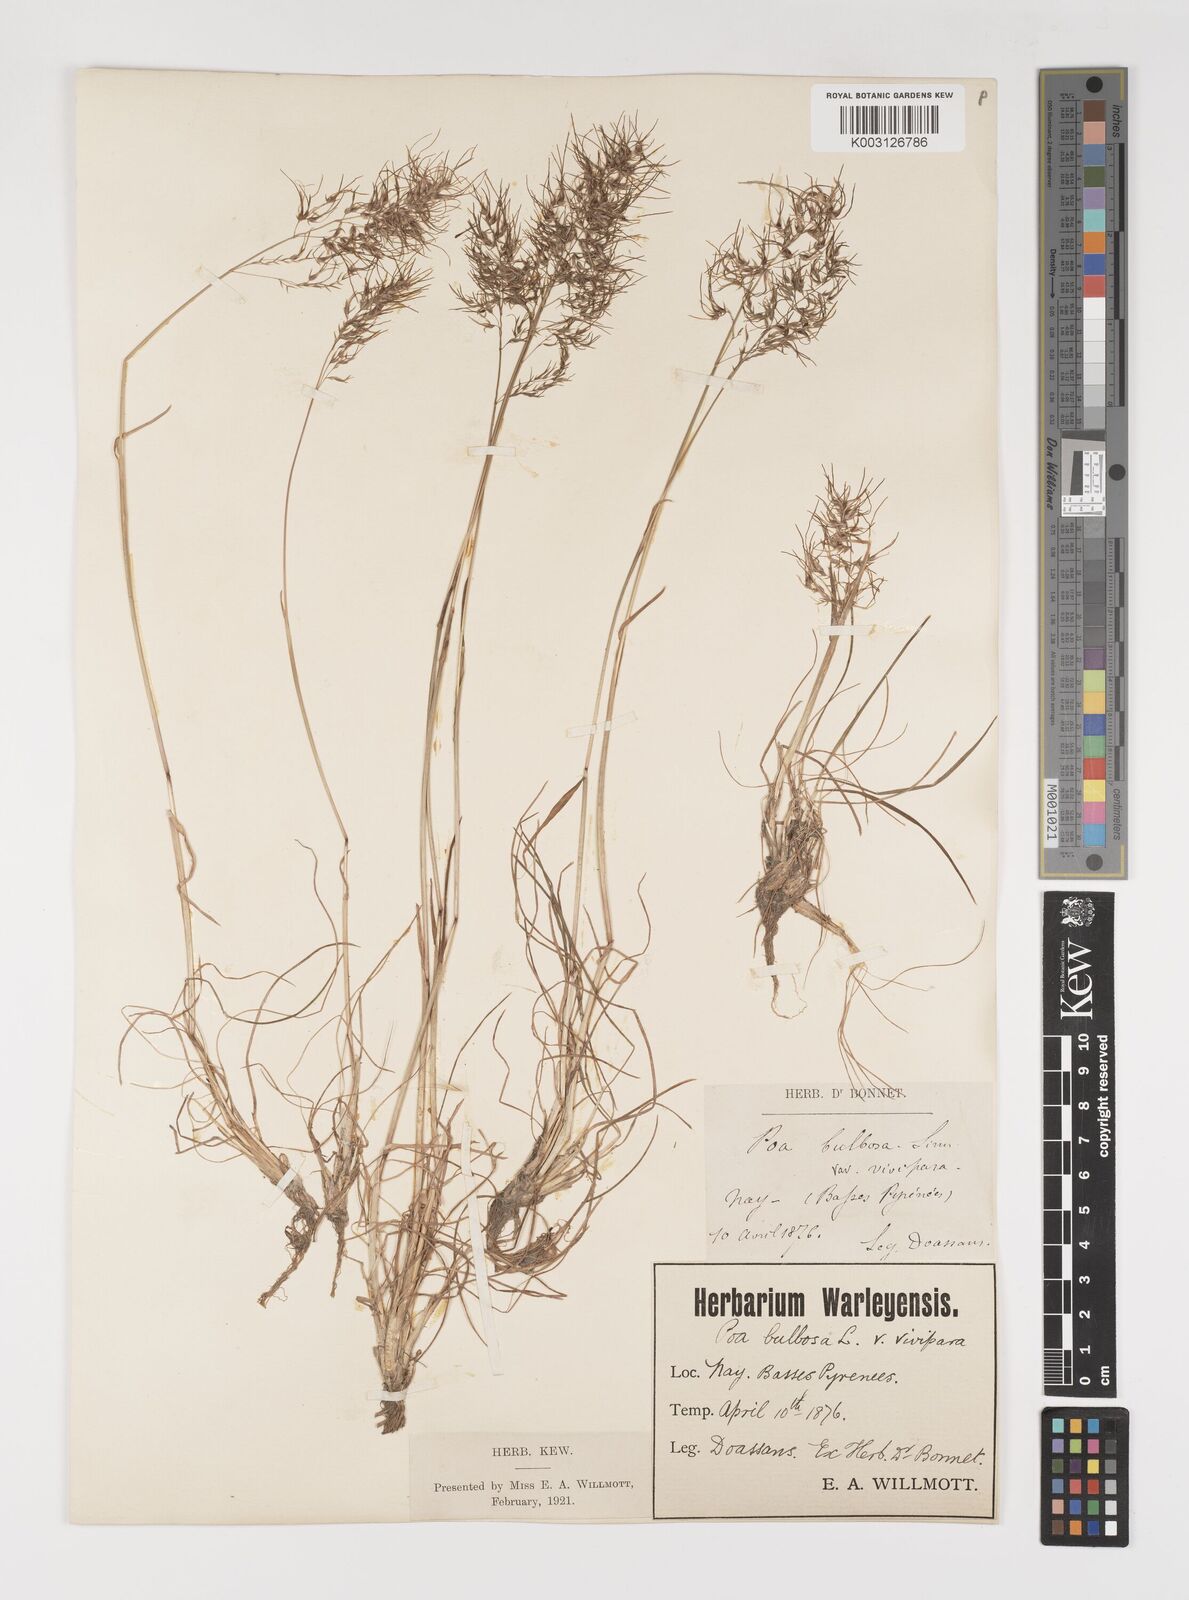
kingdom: Plantae
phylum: Tracheophyta
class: Liliopsida
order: Poales
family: Poaceae
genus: Poa
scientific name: Poa bulbosa
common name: Bulbous bluegrass
